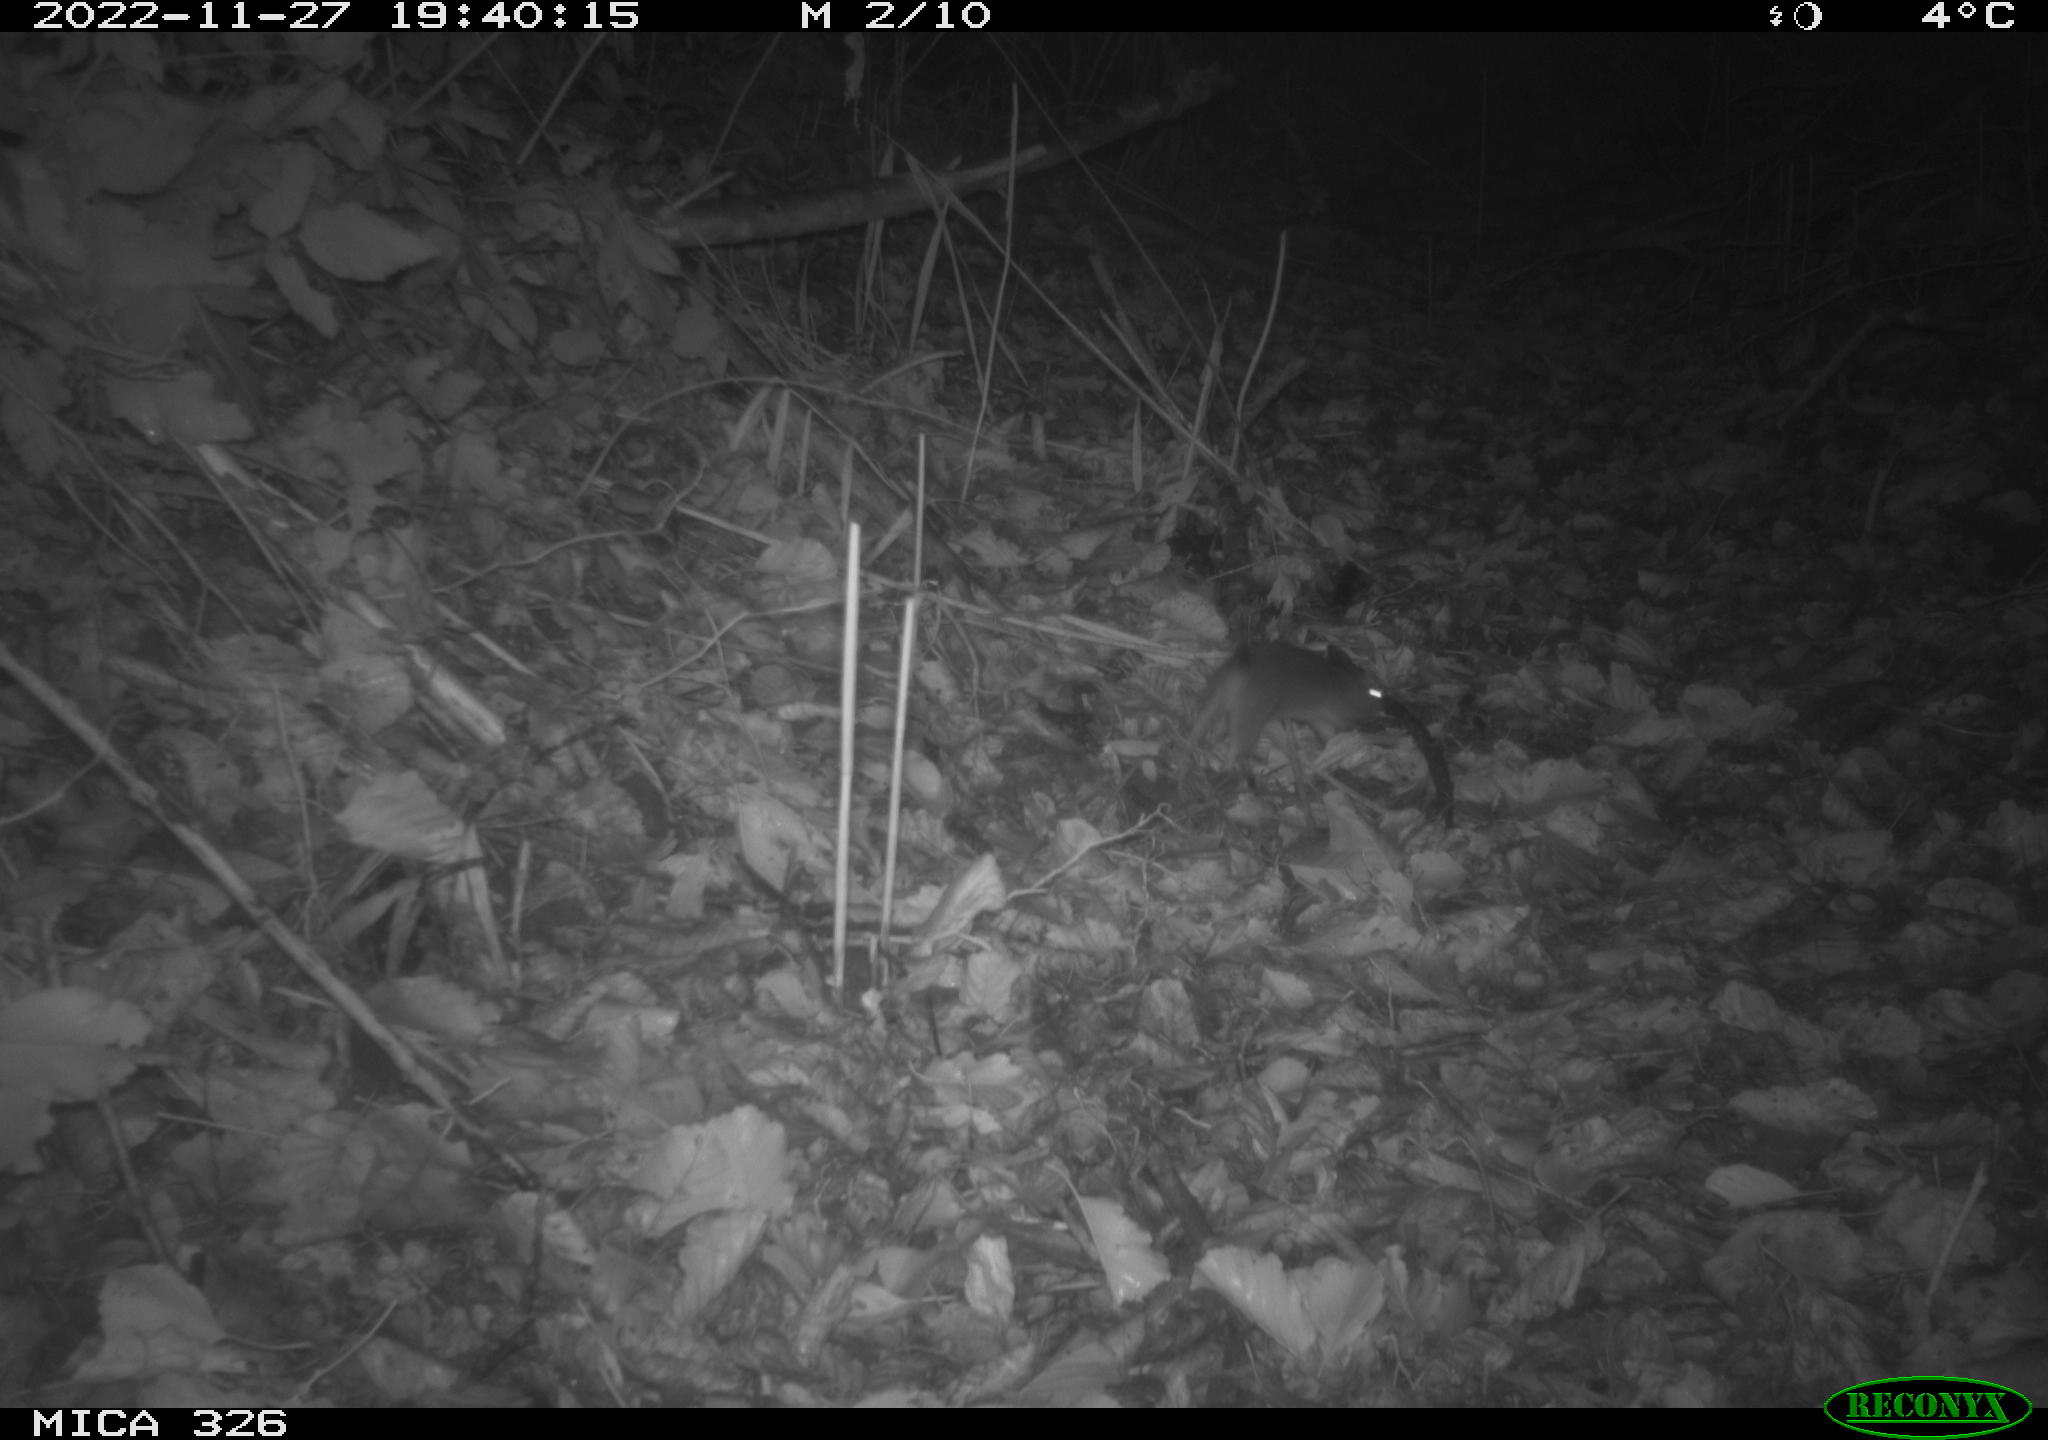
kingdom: Animalia
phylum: Chordata
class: Mammalia
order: Rodentia
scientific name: Rodentia
